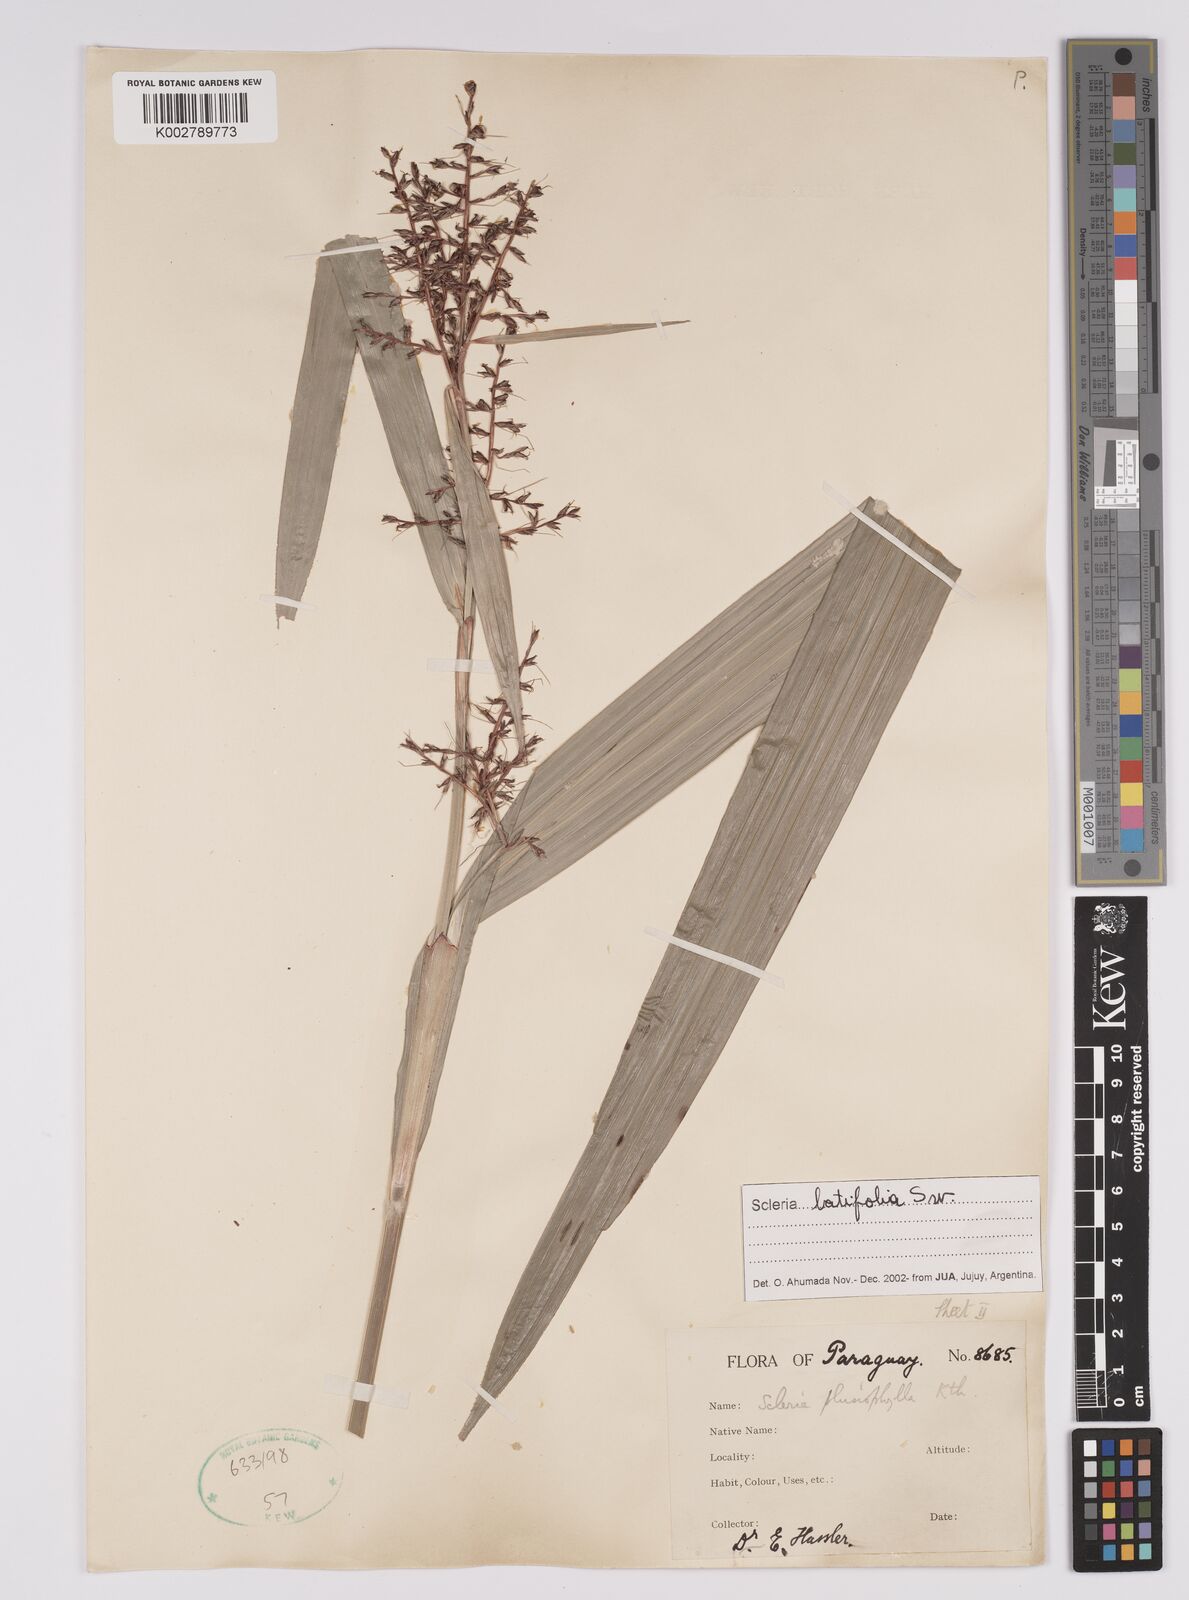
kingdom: Plantae
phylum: Tracheophyta
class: Liliopsida
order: Poales
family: Cyperaceae
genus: Scleria
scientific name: Scleria latifolia
